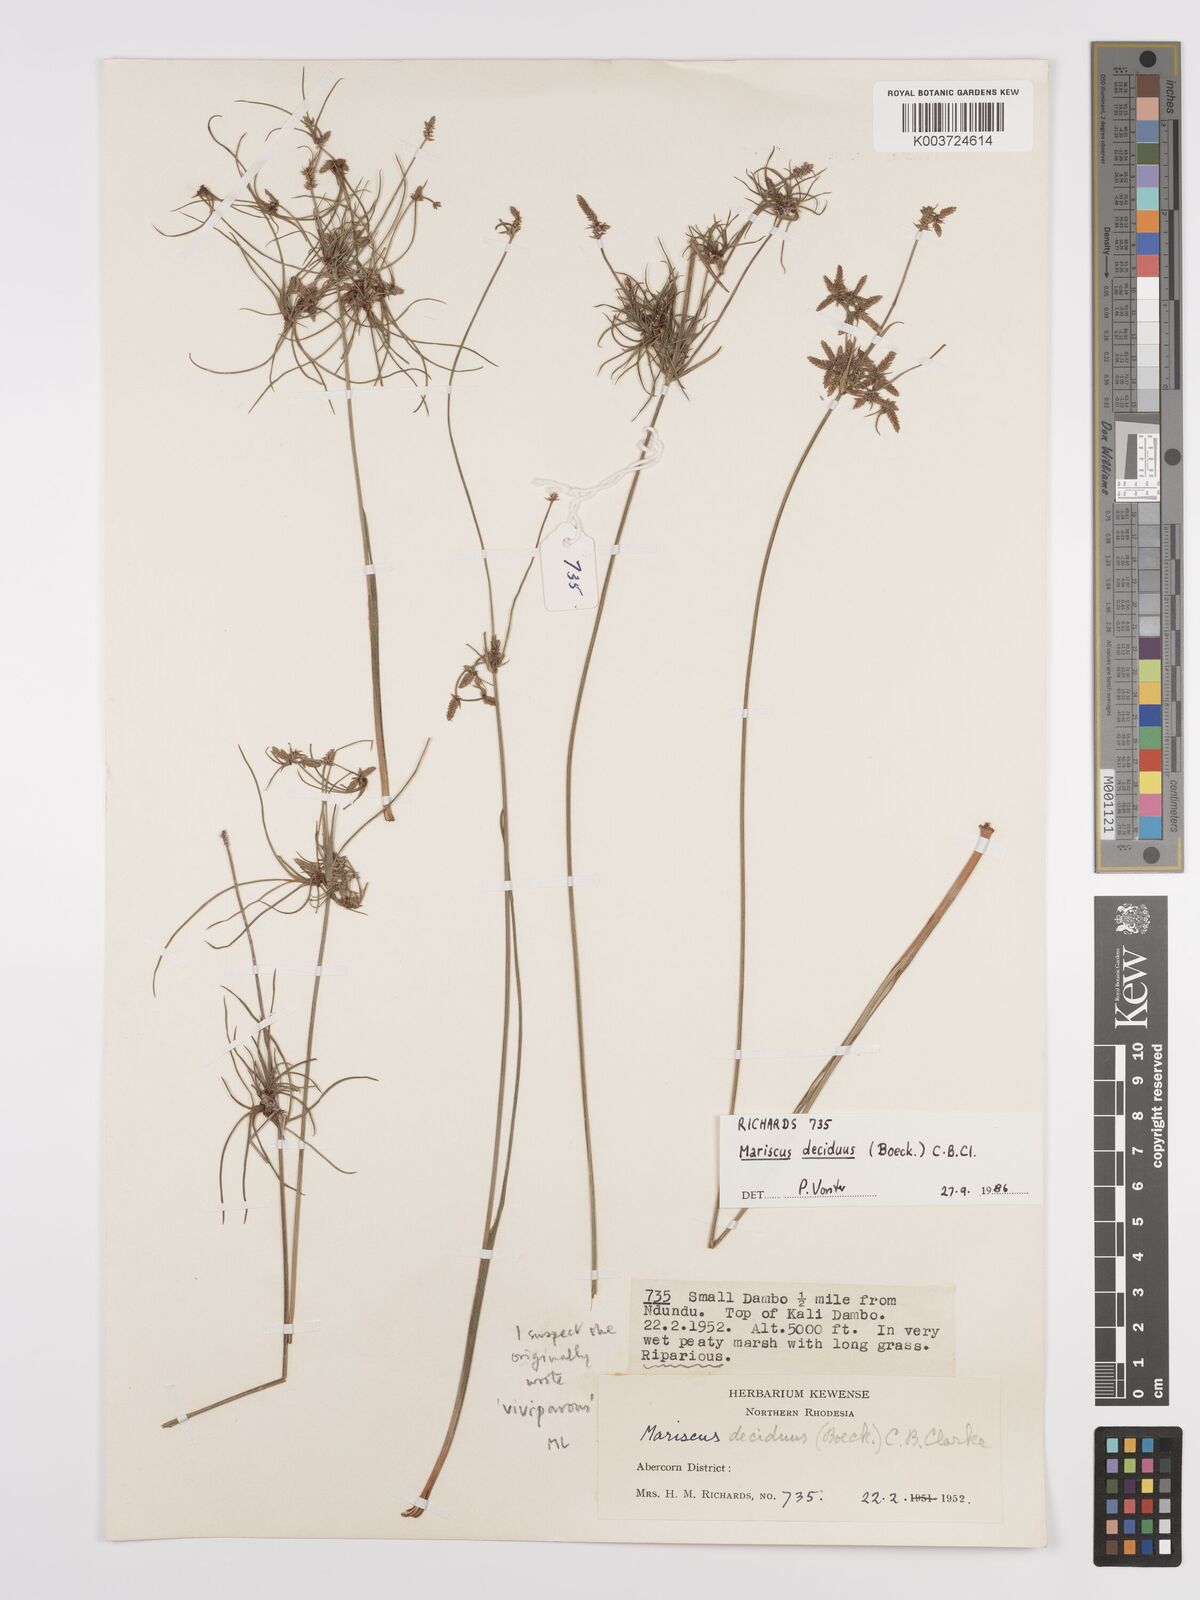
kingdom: Plantae
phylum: Tracheophyta
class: Liliopsida
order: Poales
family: Cyperaceae
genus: Cyperus
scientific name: Cyperus deciduus
